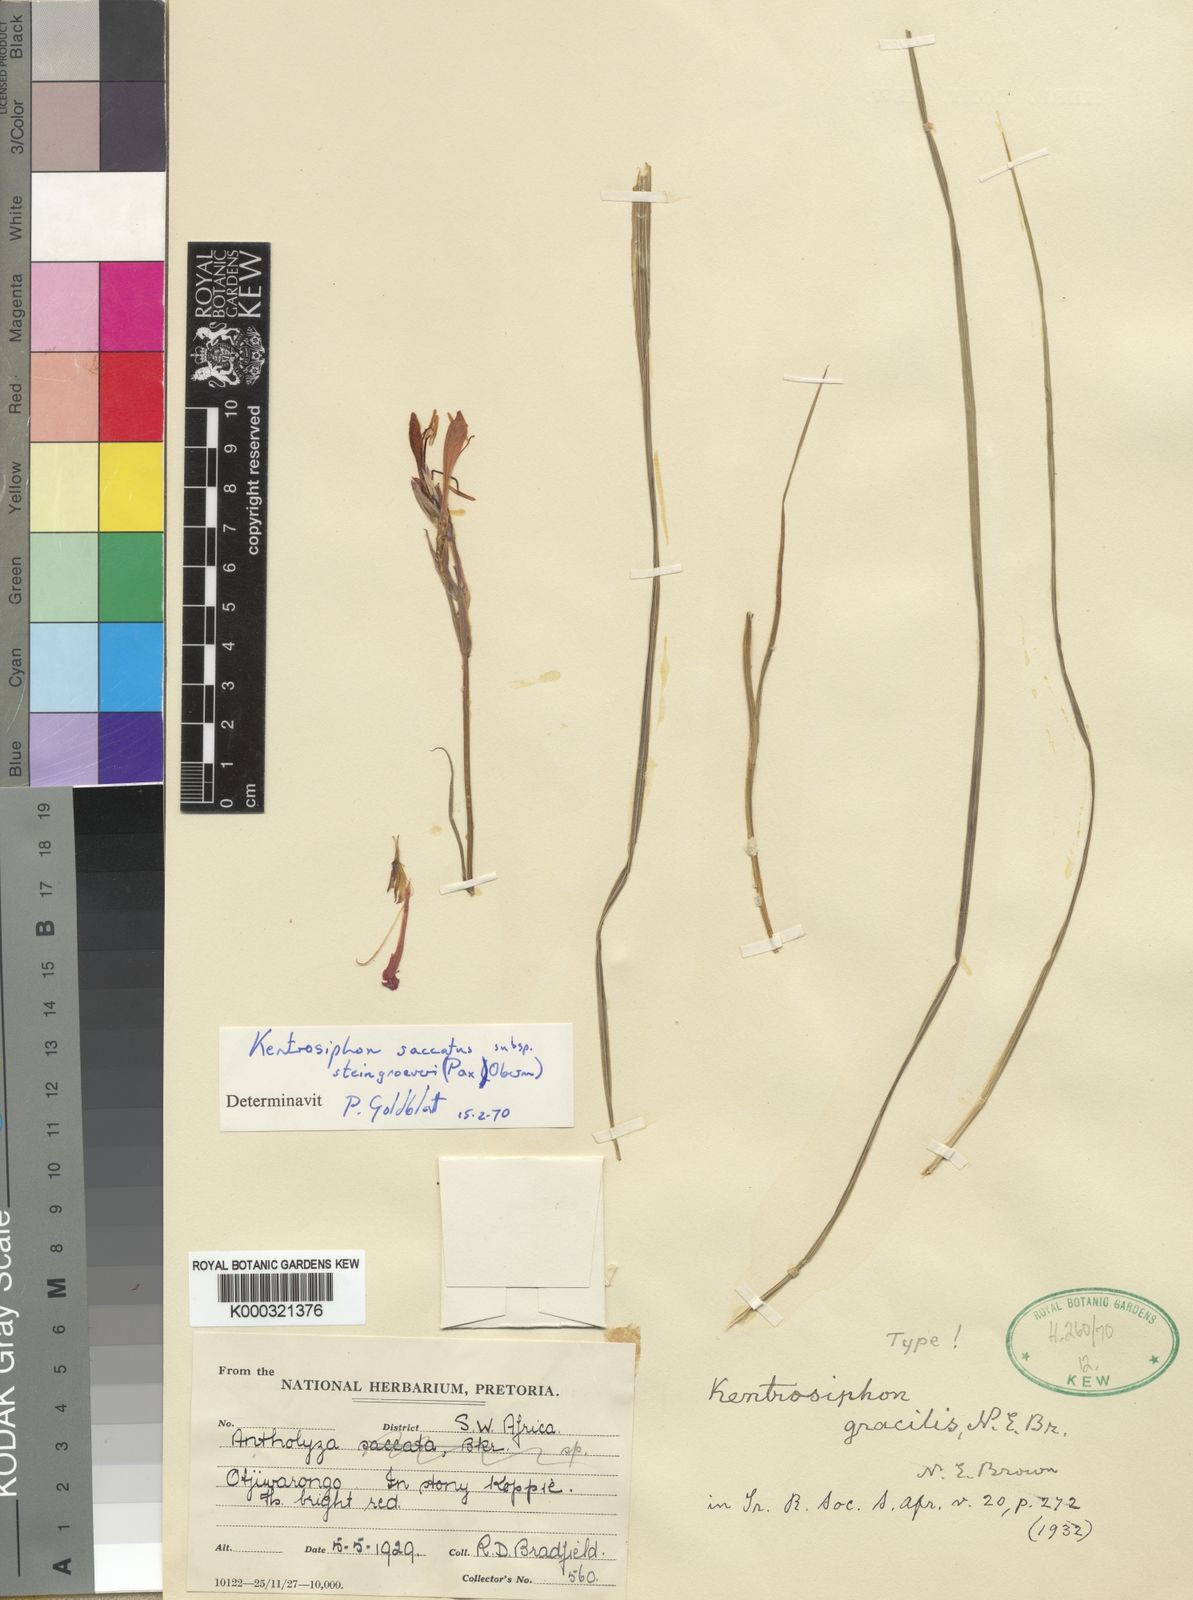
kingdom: Plantae
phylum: Tracheophyta
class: Liliopsida
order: Asparagales
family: Iridaceae
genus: Gladiolus
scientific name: Gladiolus saccatus
